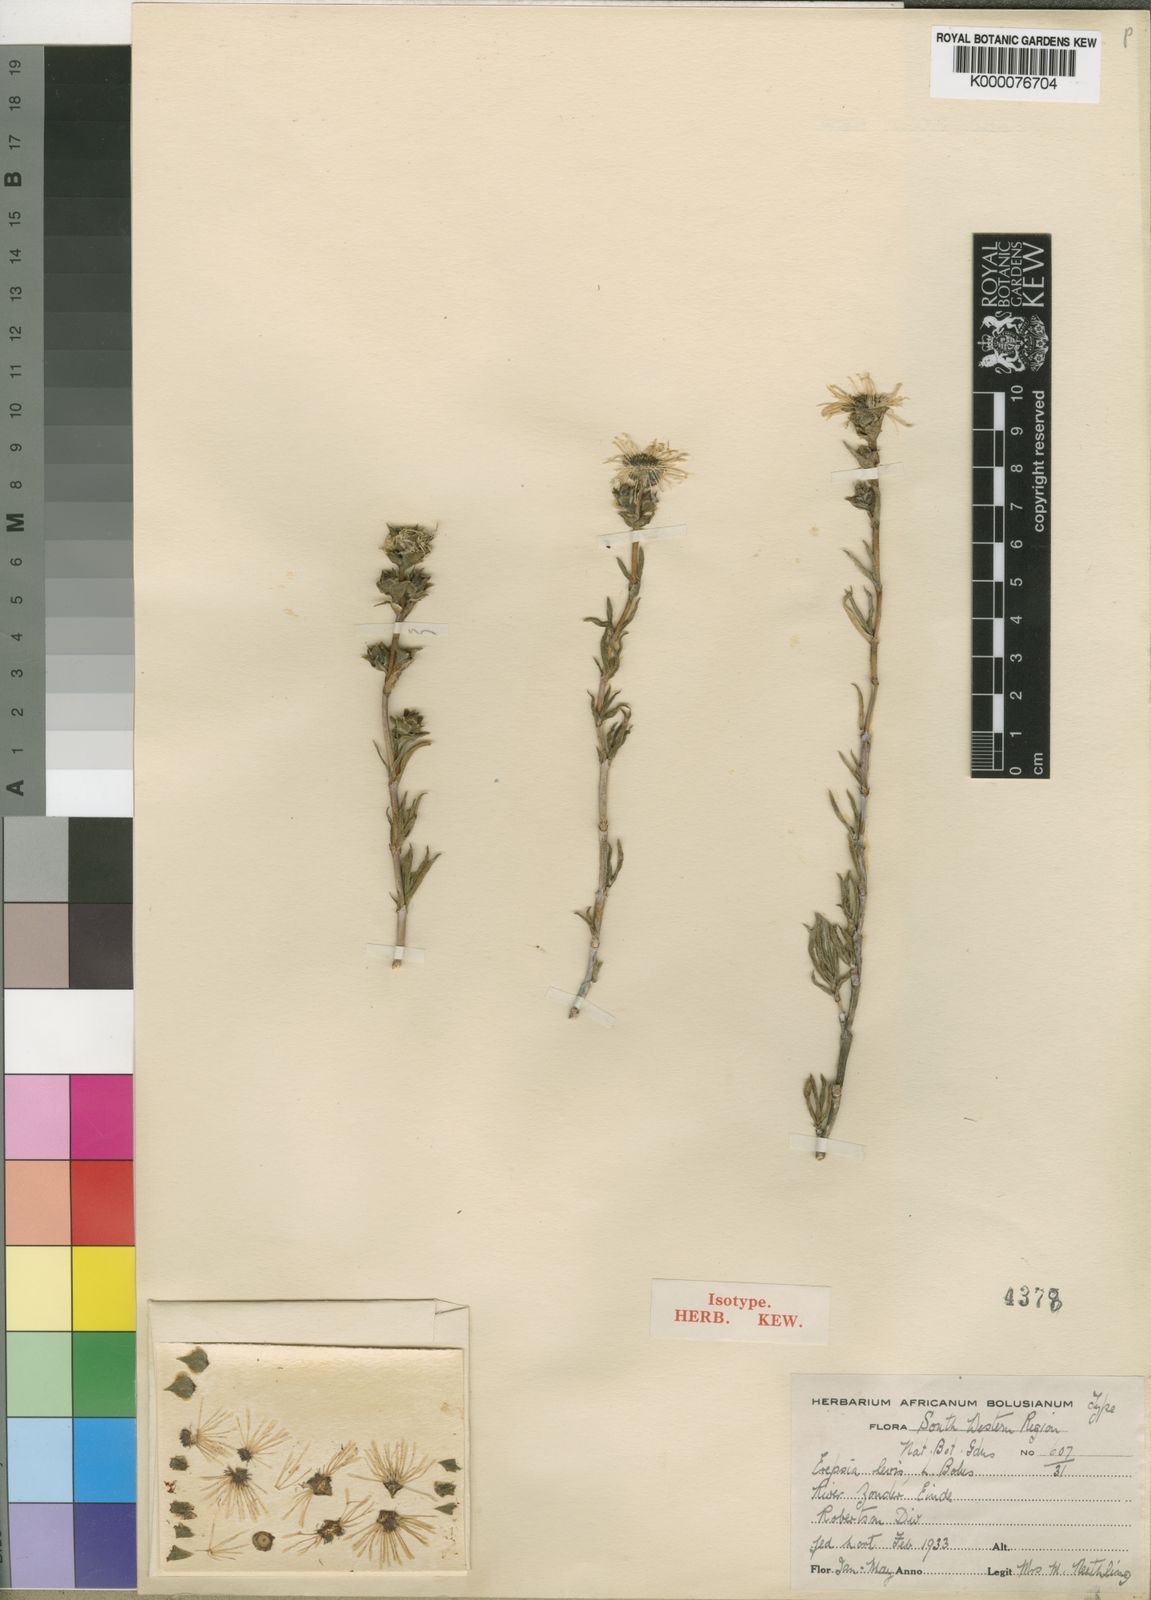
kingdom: Plantae
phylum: Tracheophyta
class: Magnoliopsida
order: Caryophyllales
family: Aizoaceae
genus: Erepsia
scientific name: Erepsia gracilis
